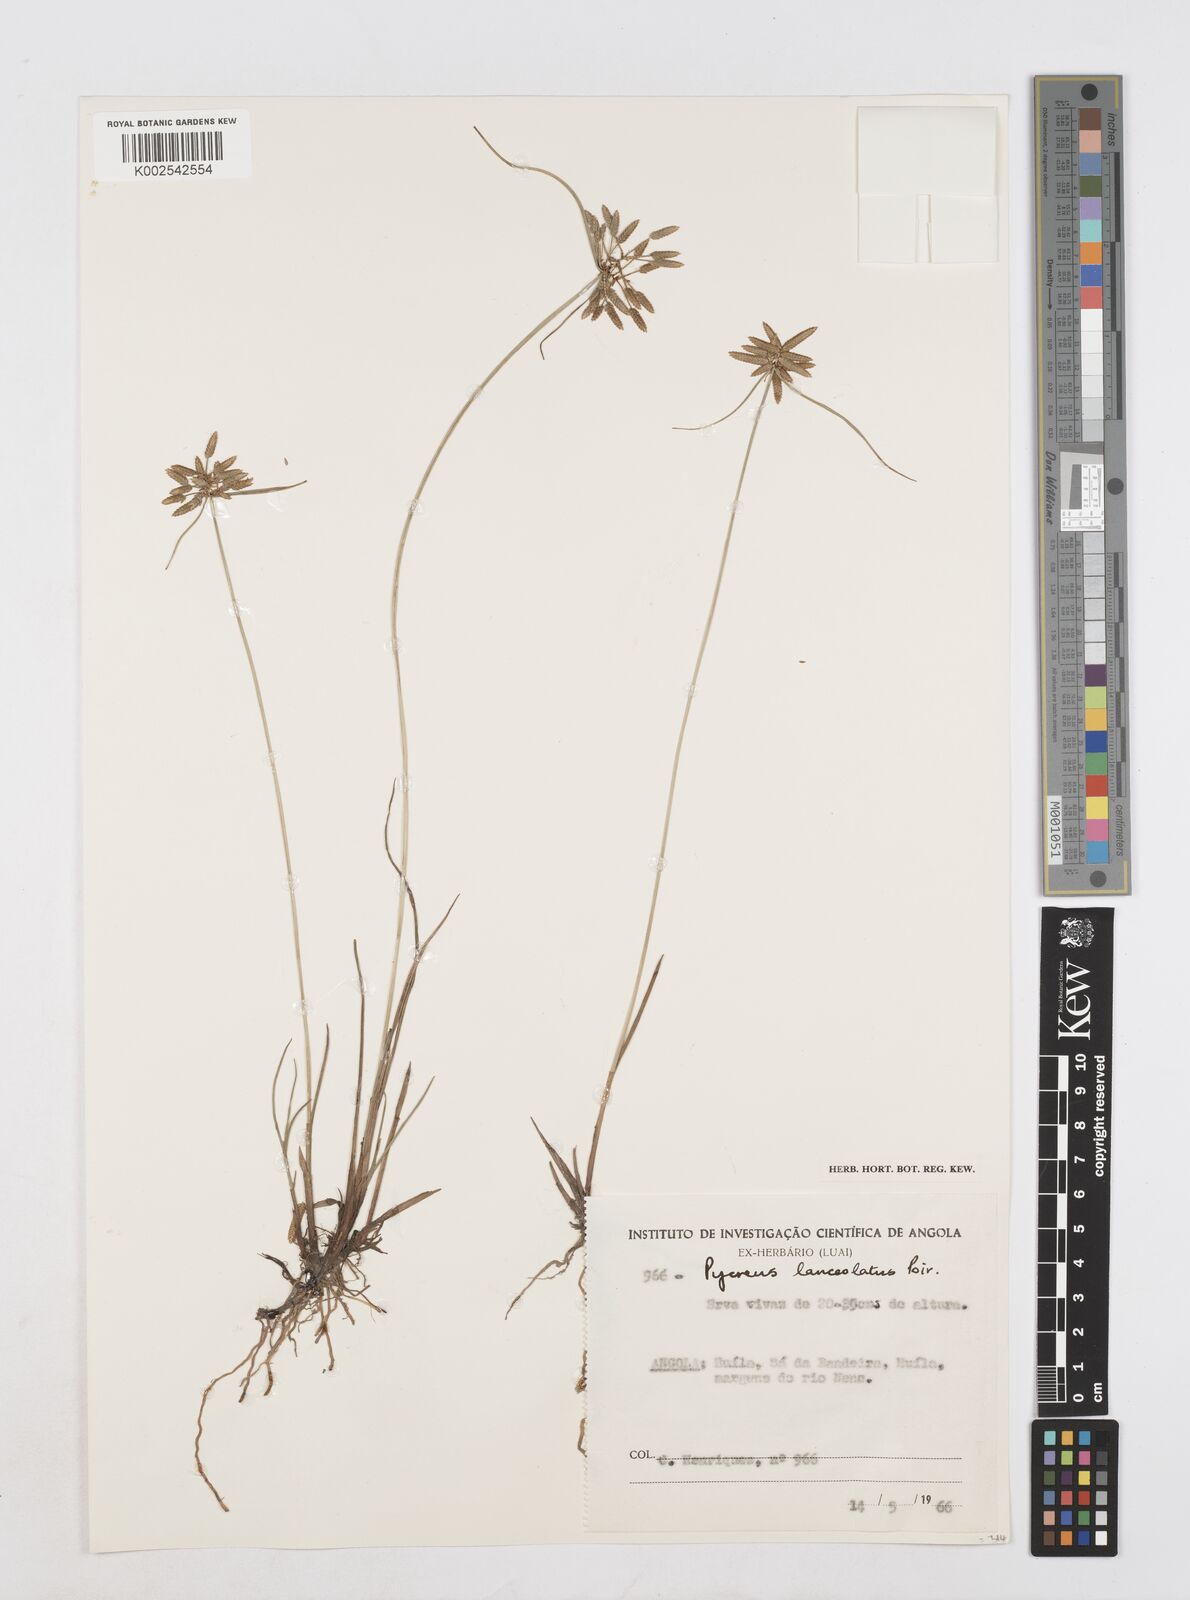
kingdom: Plantae
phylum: Tracheophyta
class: Liliopsida
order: Poales
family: Cyperaceae
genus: Cyperus
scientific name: Cyperus
